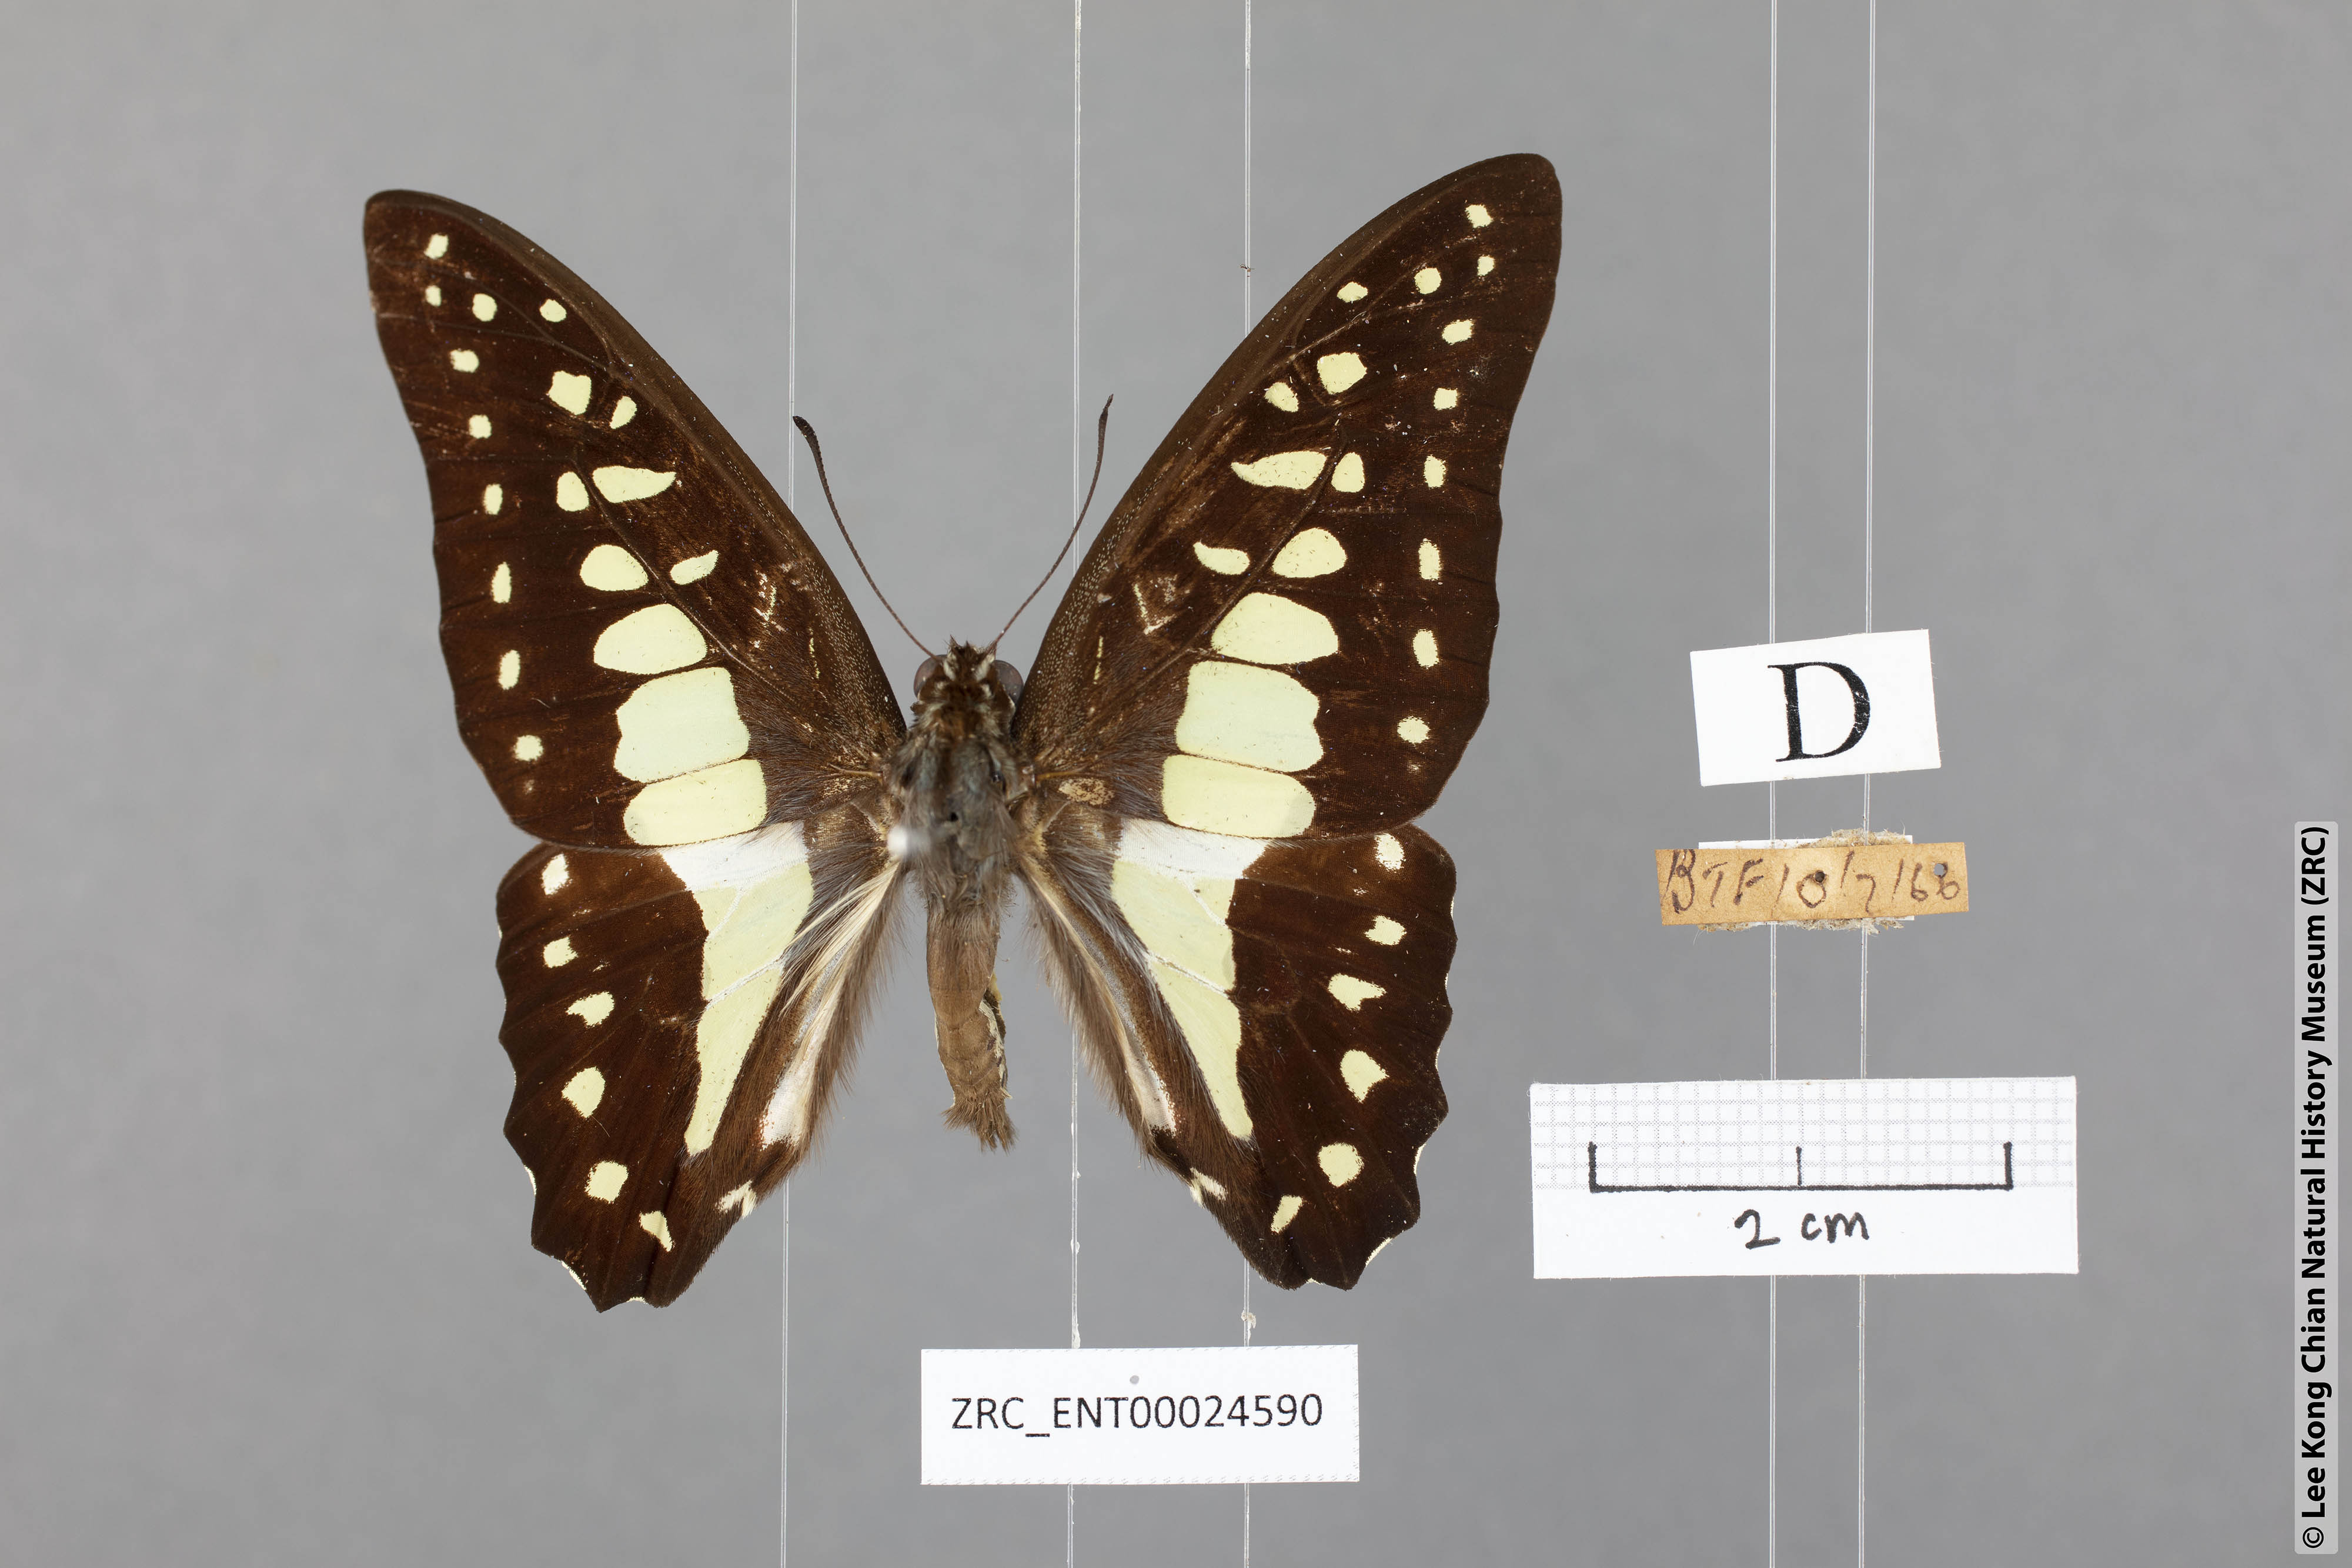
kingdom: Animalia
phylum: Arthropoda
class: Insecta
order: Lepidoptera
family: Papilionidae
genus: Graphium
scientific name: Graphium evemon
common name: Lesser jay
